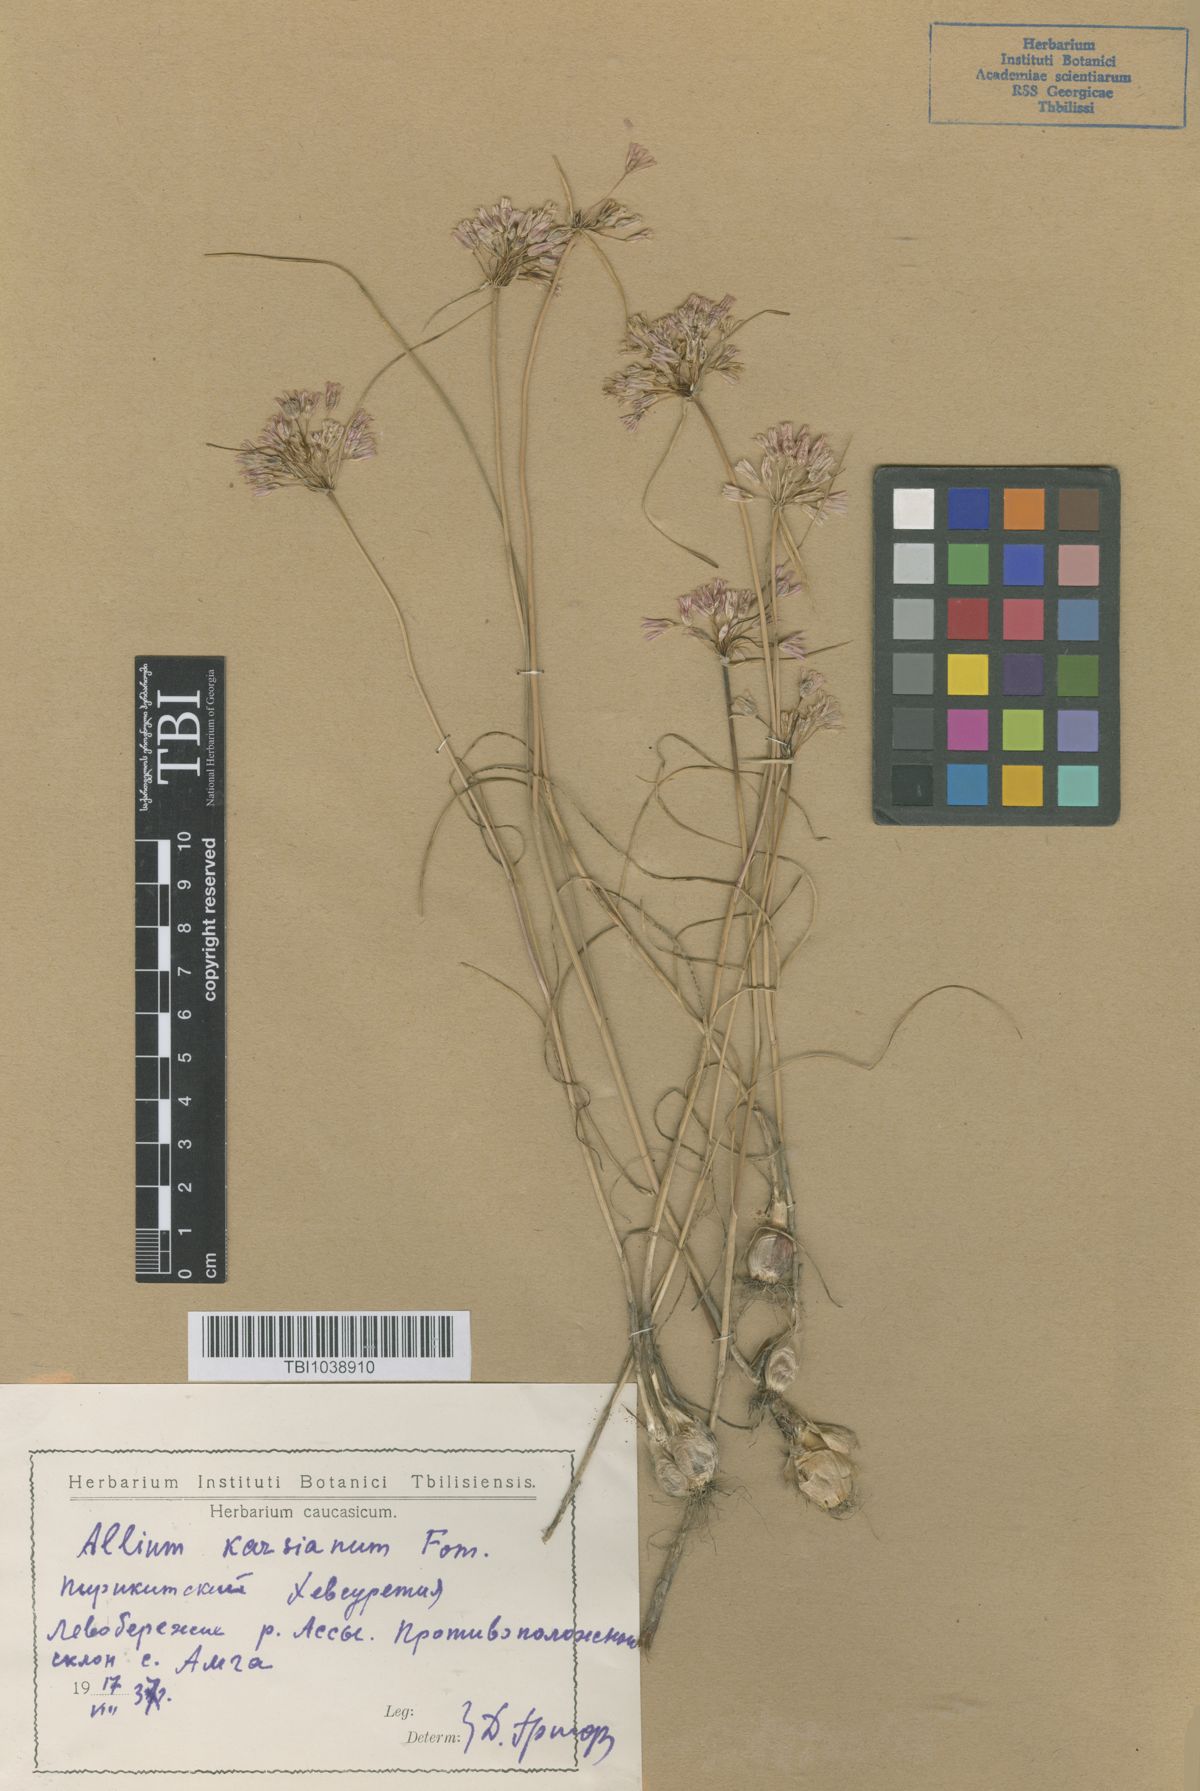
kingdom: Plantae
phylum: Tracheophyta
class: Liliopsida
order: Asparagales
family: Amaryllidaceae
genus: Allium
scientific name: Allium paniculatum
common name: Pale garlic
